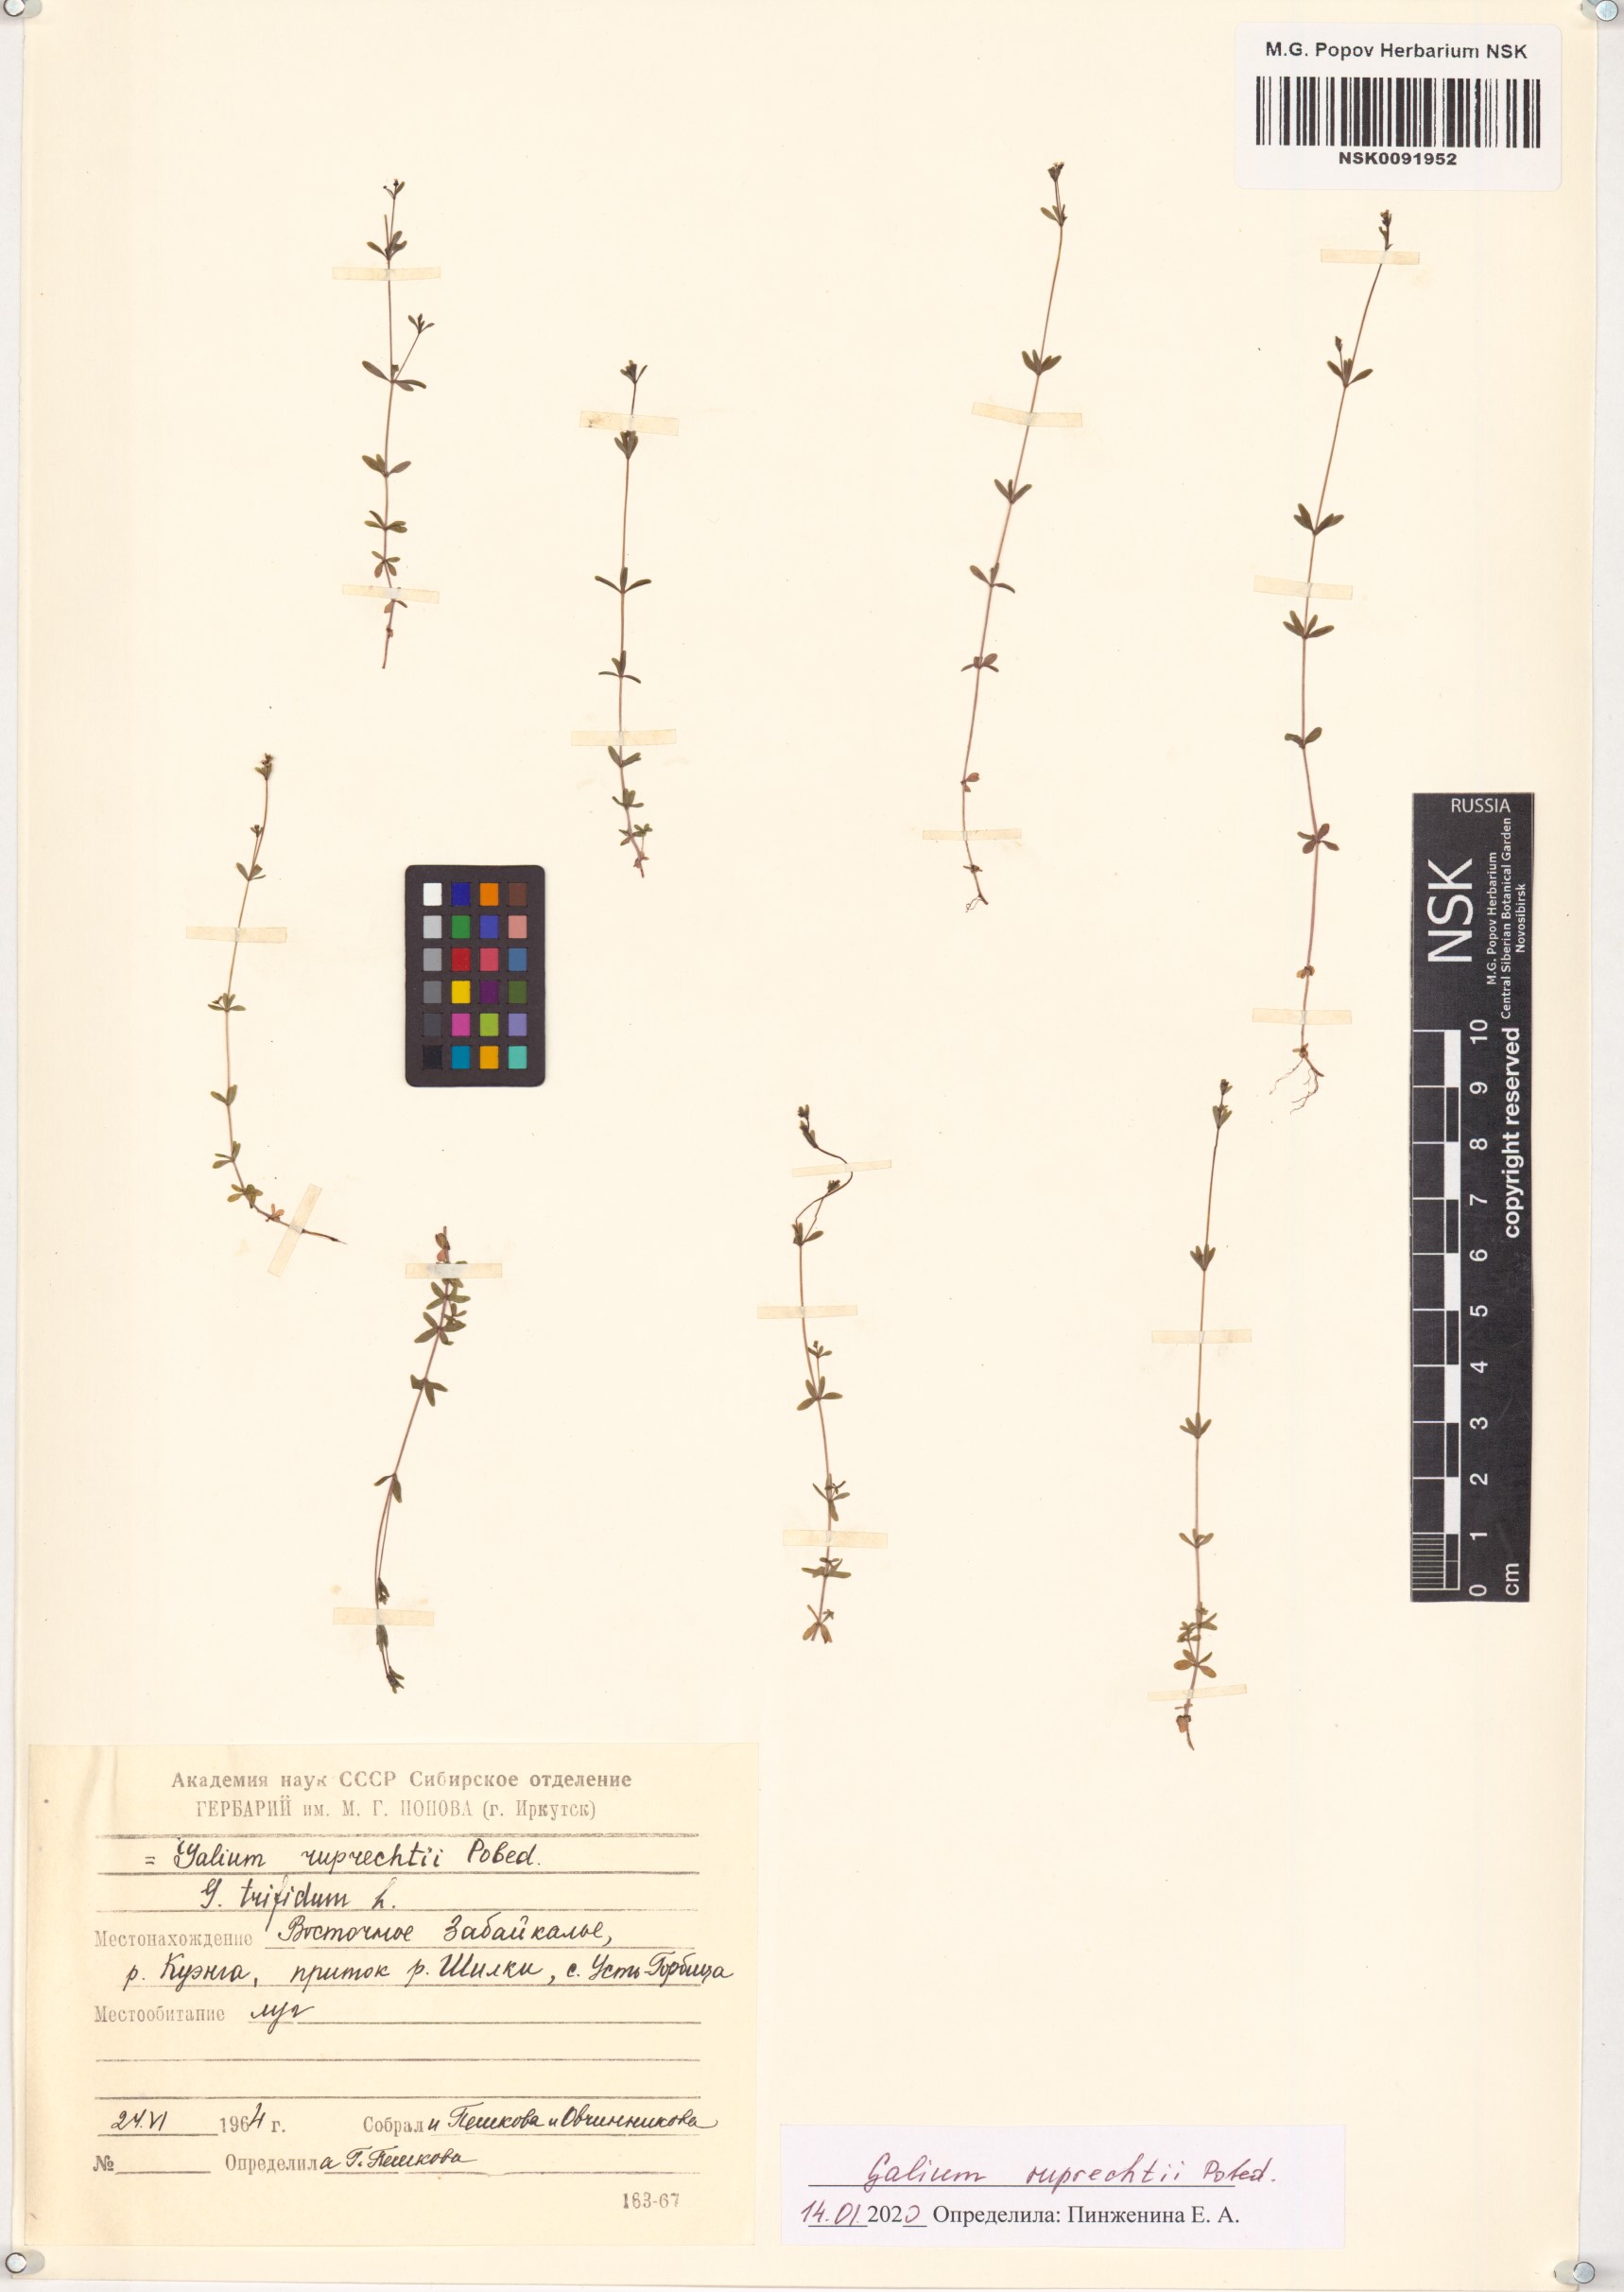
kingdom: Plantae
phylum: Tracheophyta
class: Magnoliopsida
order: Gentianales
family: Rubiaceae
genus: Galium
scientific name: Galium trifidum
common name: Small bedstraw
